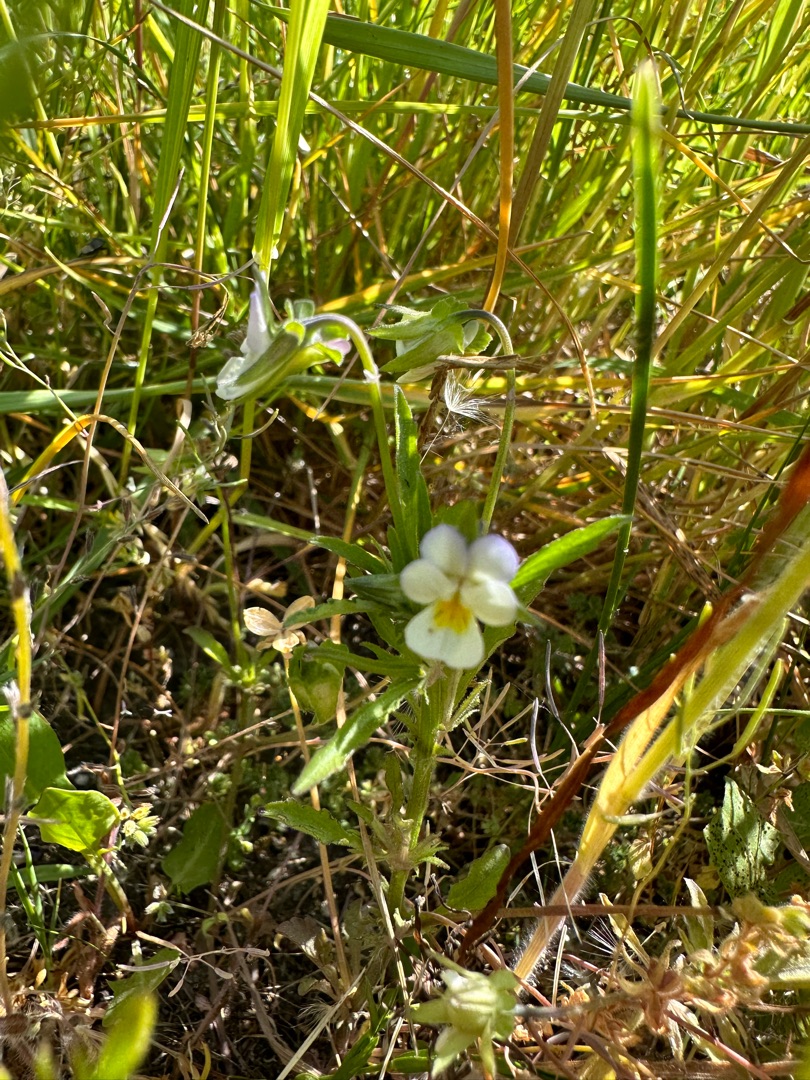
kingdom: Plantae
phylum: Tracheophyta
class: Magnoliopsida
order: Malpighiales
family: Violaceae
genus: Viola
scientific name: Viola arvensis
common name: Ager-stedmoderblomst
